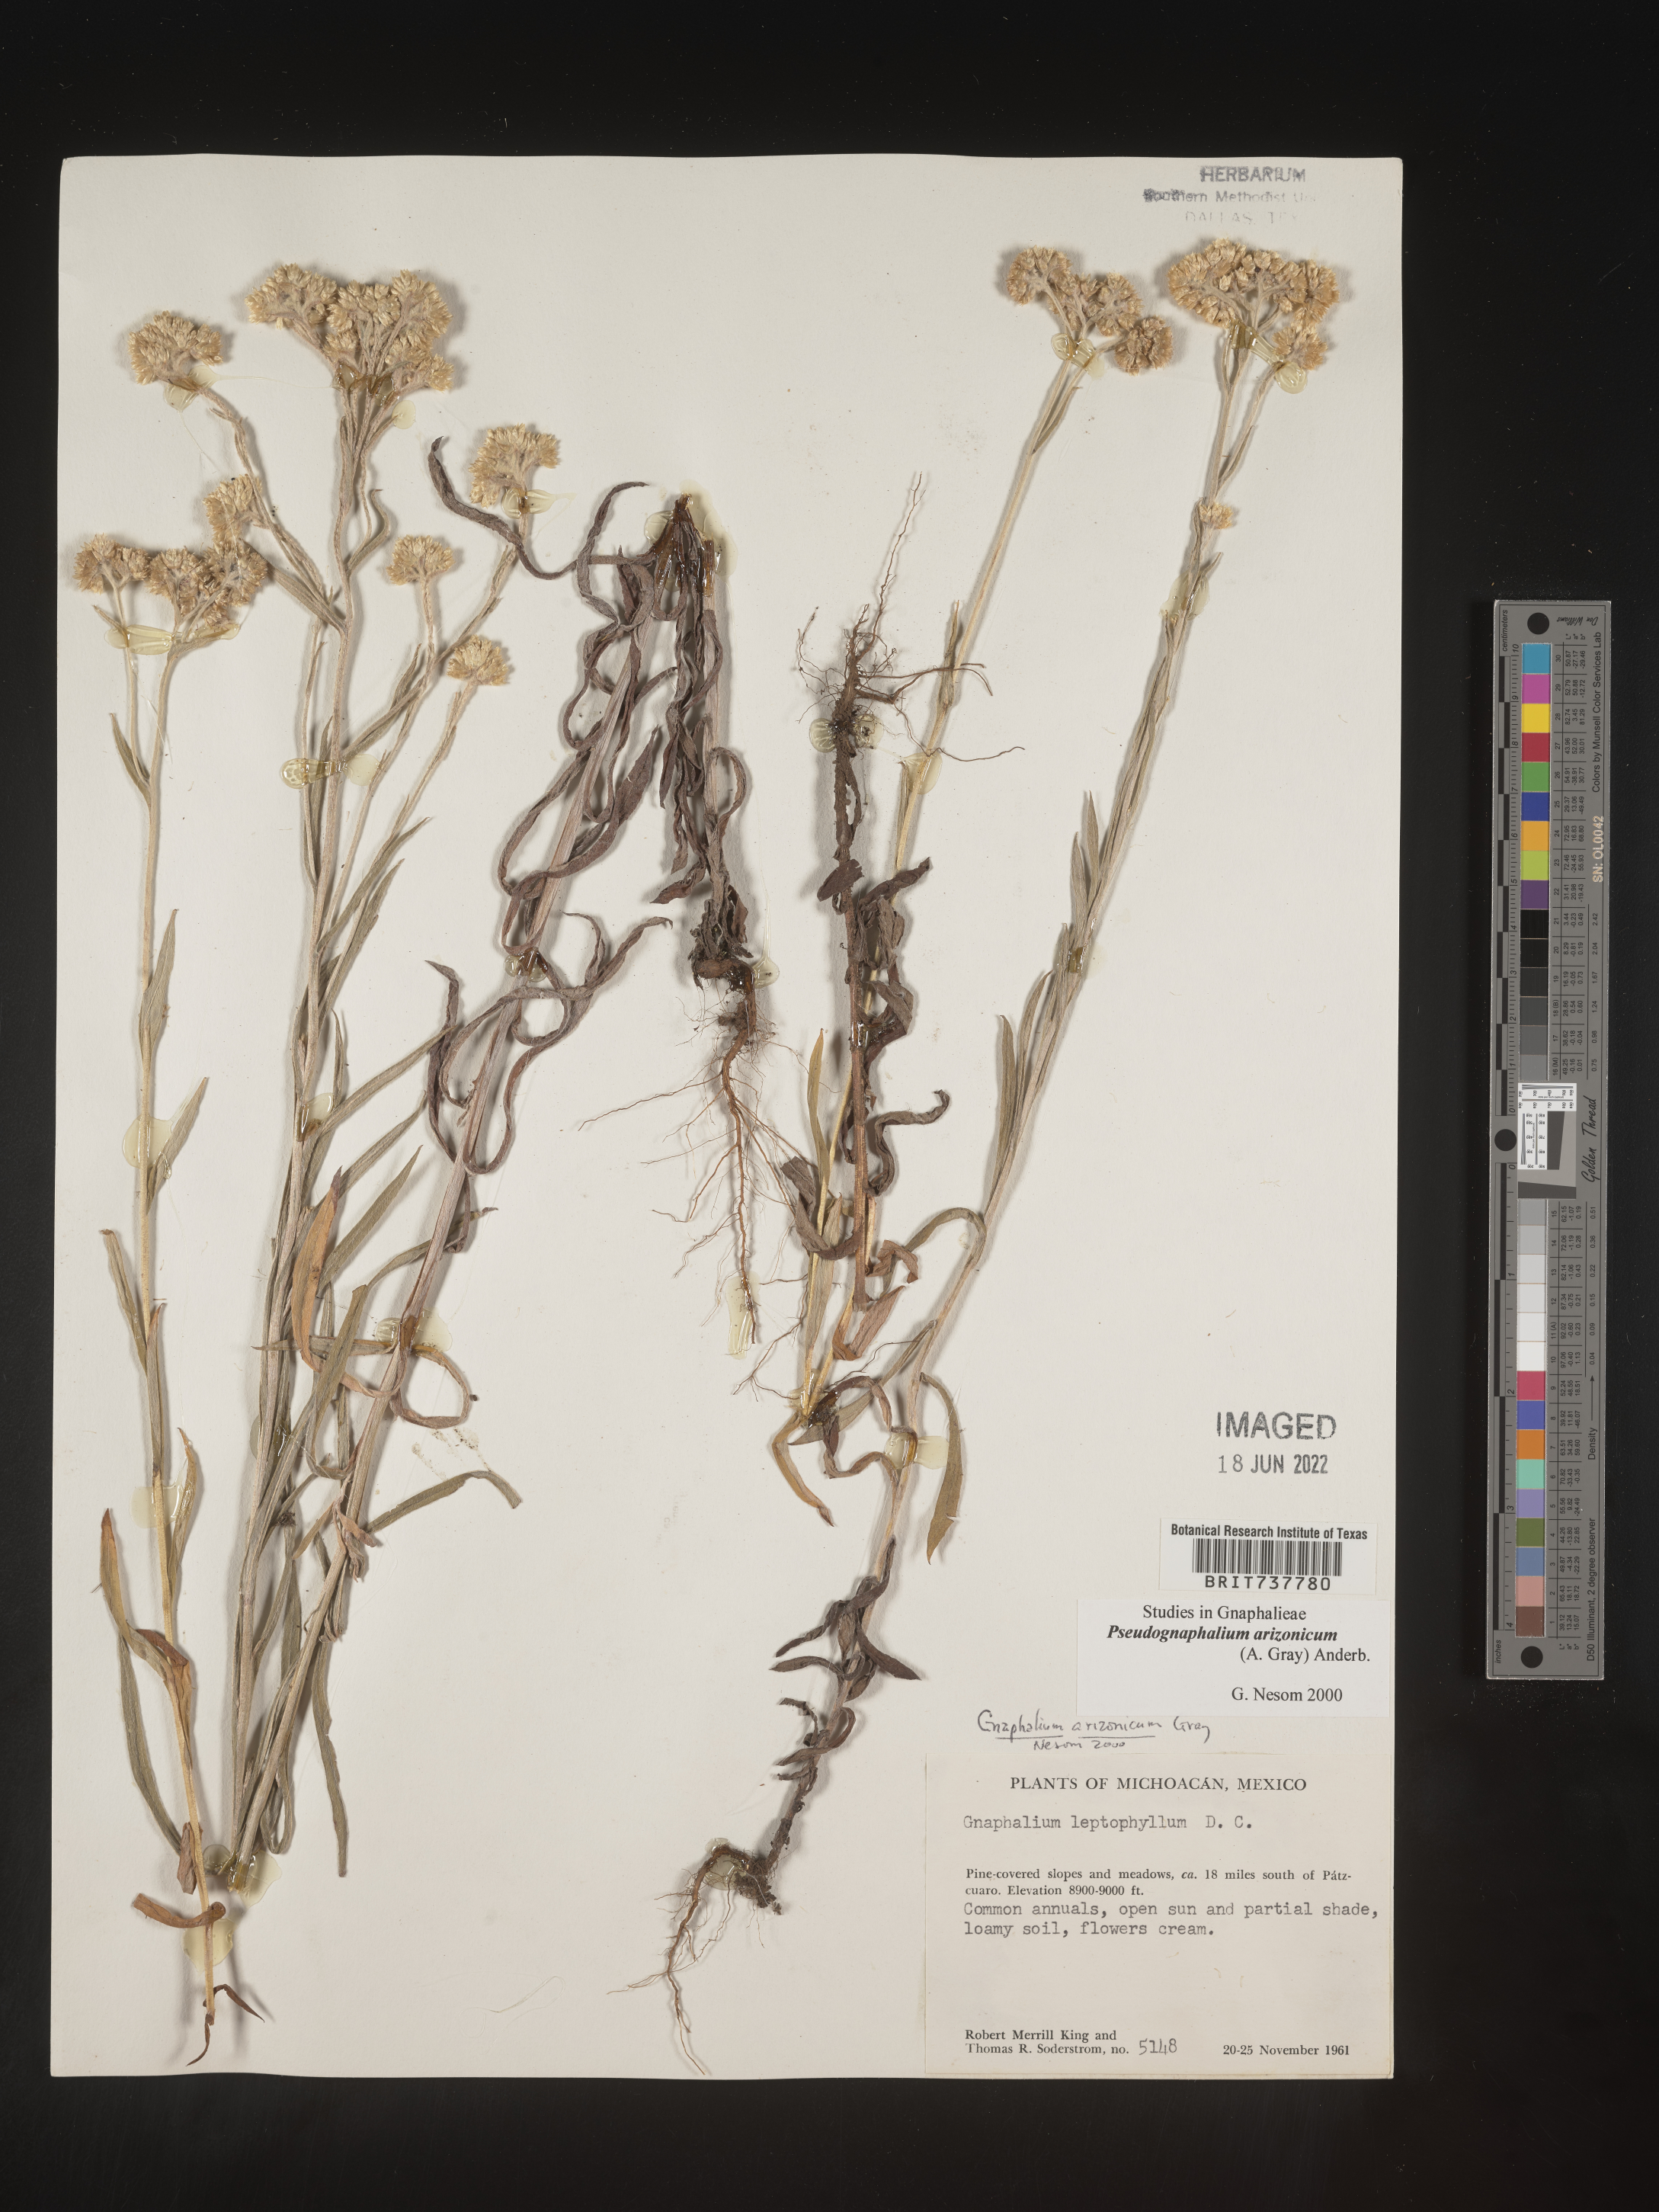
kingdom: Plantae
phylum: Tracheophyta
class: Magnoliopsida
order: Asterales
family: Asteraceae
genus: Pseudognaphalium
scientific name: Pseudognaphalium arizonicum
